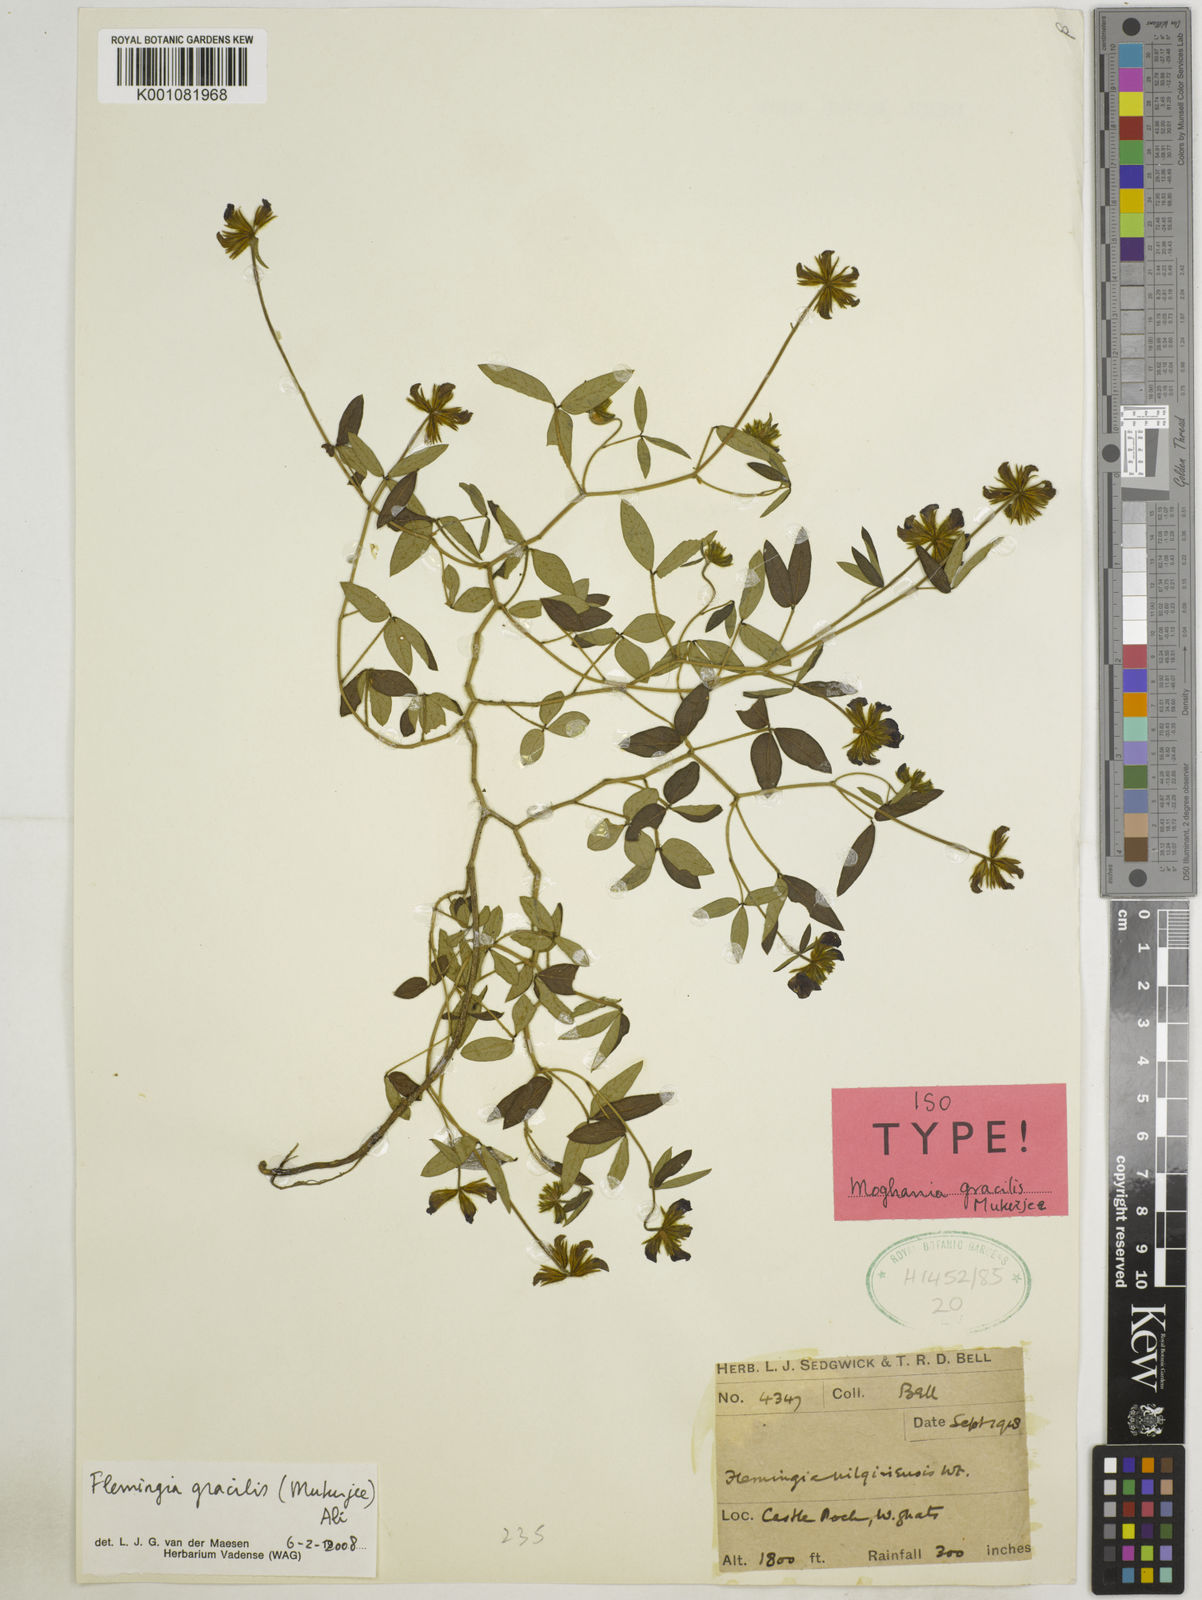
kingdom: Plantae
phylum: Tracheophyta
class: Magnoliopsida
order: Fabales
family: Fabaceae
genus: Flemingia
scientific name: Flemingia gracilis
